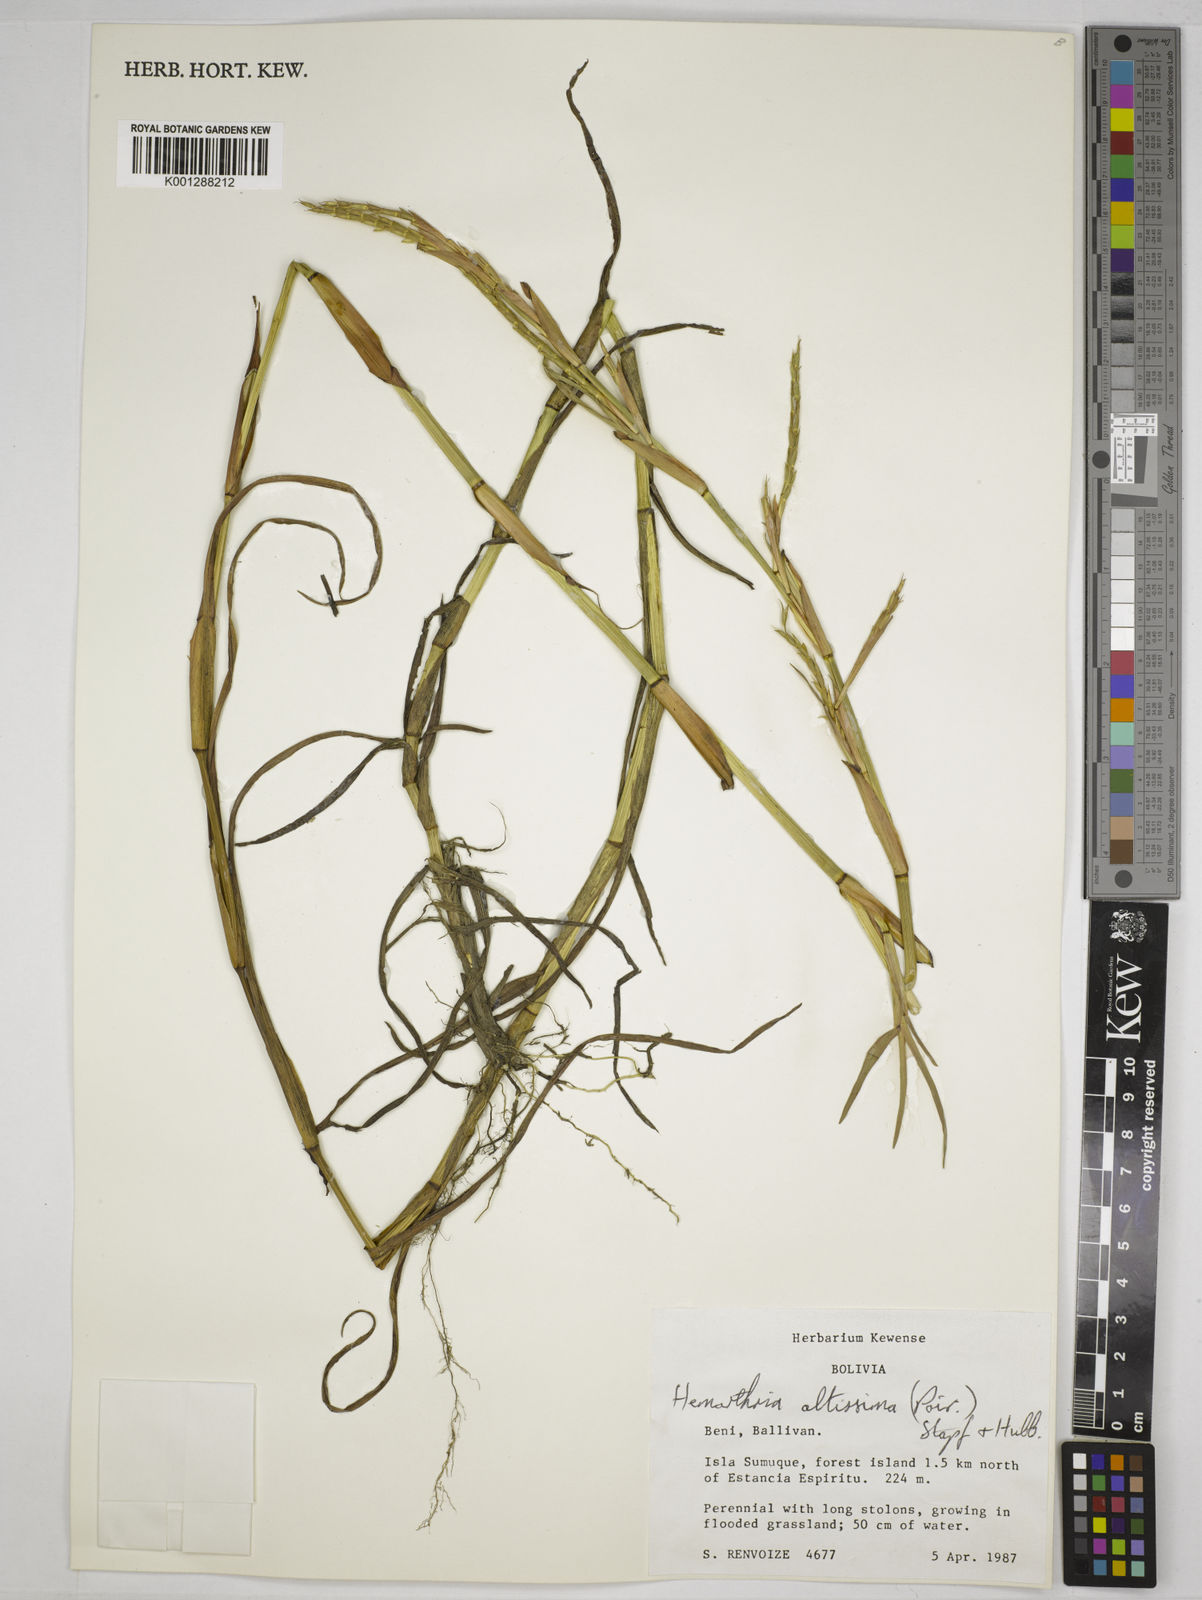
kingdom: Plantae
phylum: Tracheophyta
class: Liliopsida
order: Poales
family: Poaceae
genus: Hemarthria
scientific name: Hemarthria altissima
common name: African jointgrass
